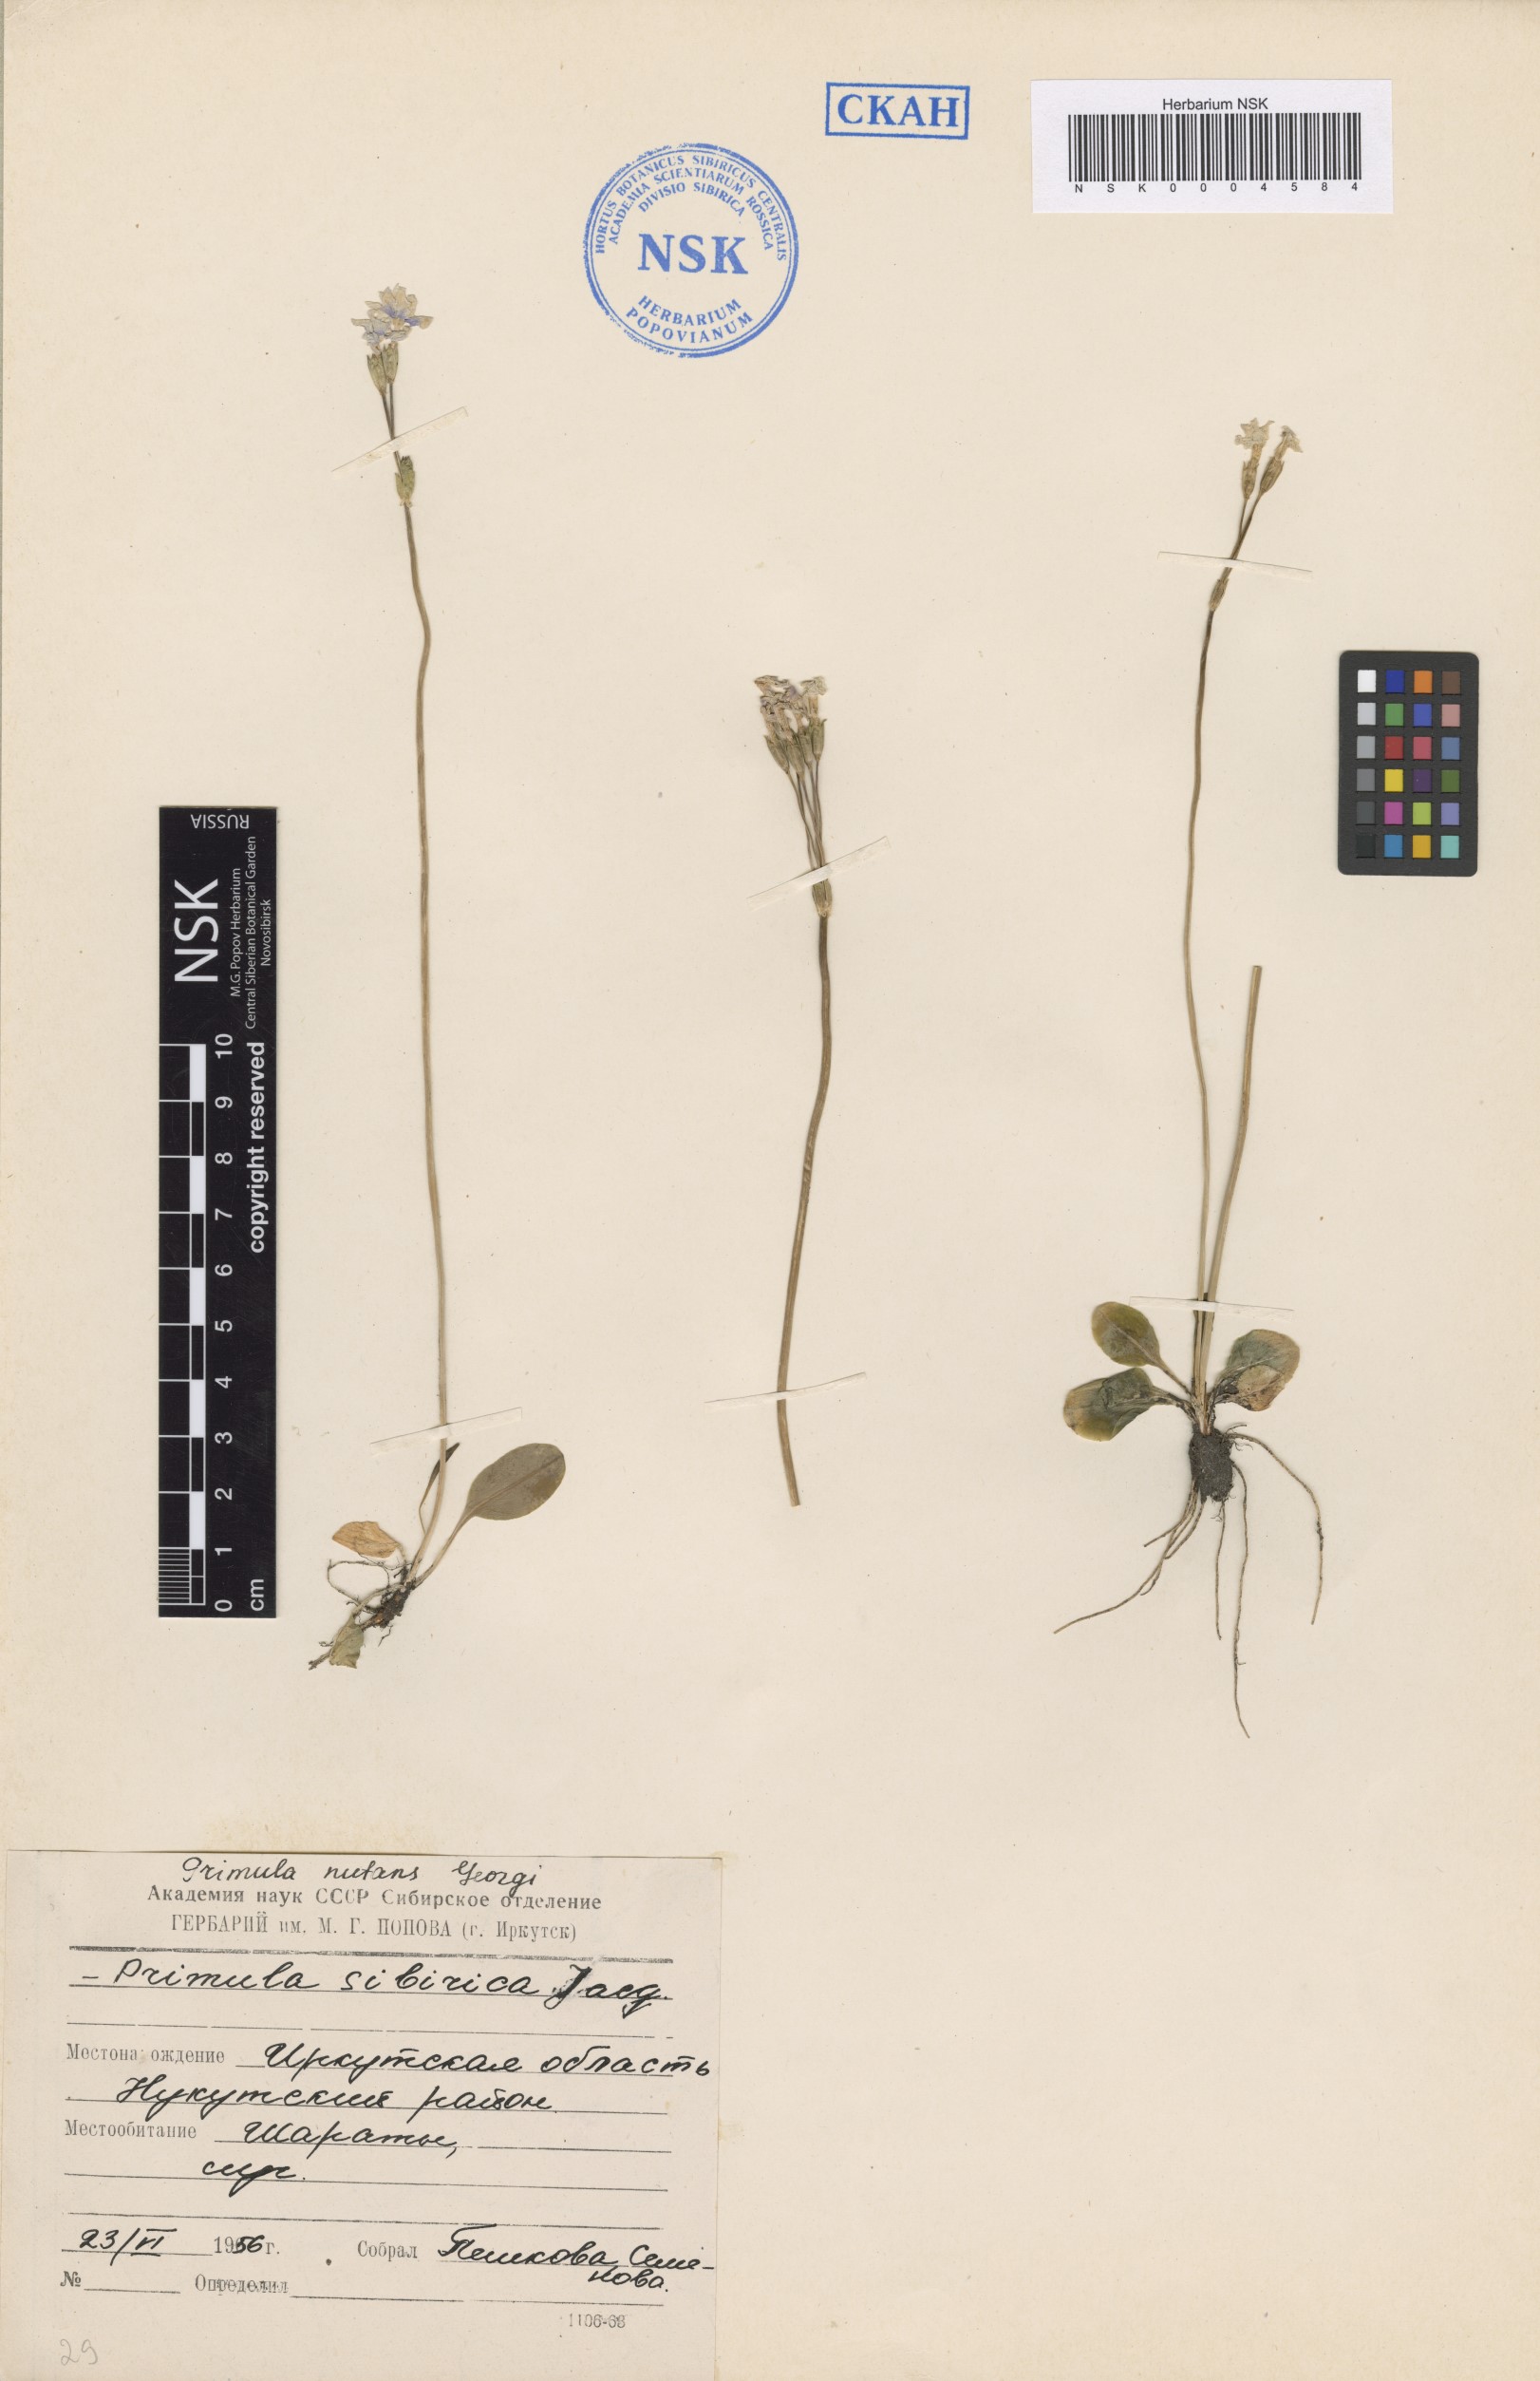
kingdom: Plantae
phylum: Tracheophyta
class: Magnoliopsida
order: Ericales
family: Primulaceae
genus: Primula
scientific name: Primula nutans
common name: Siberian primrose
